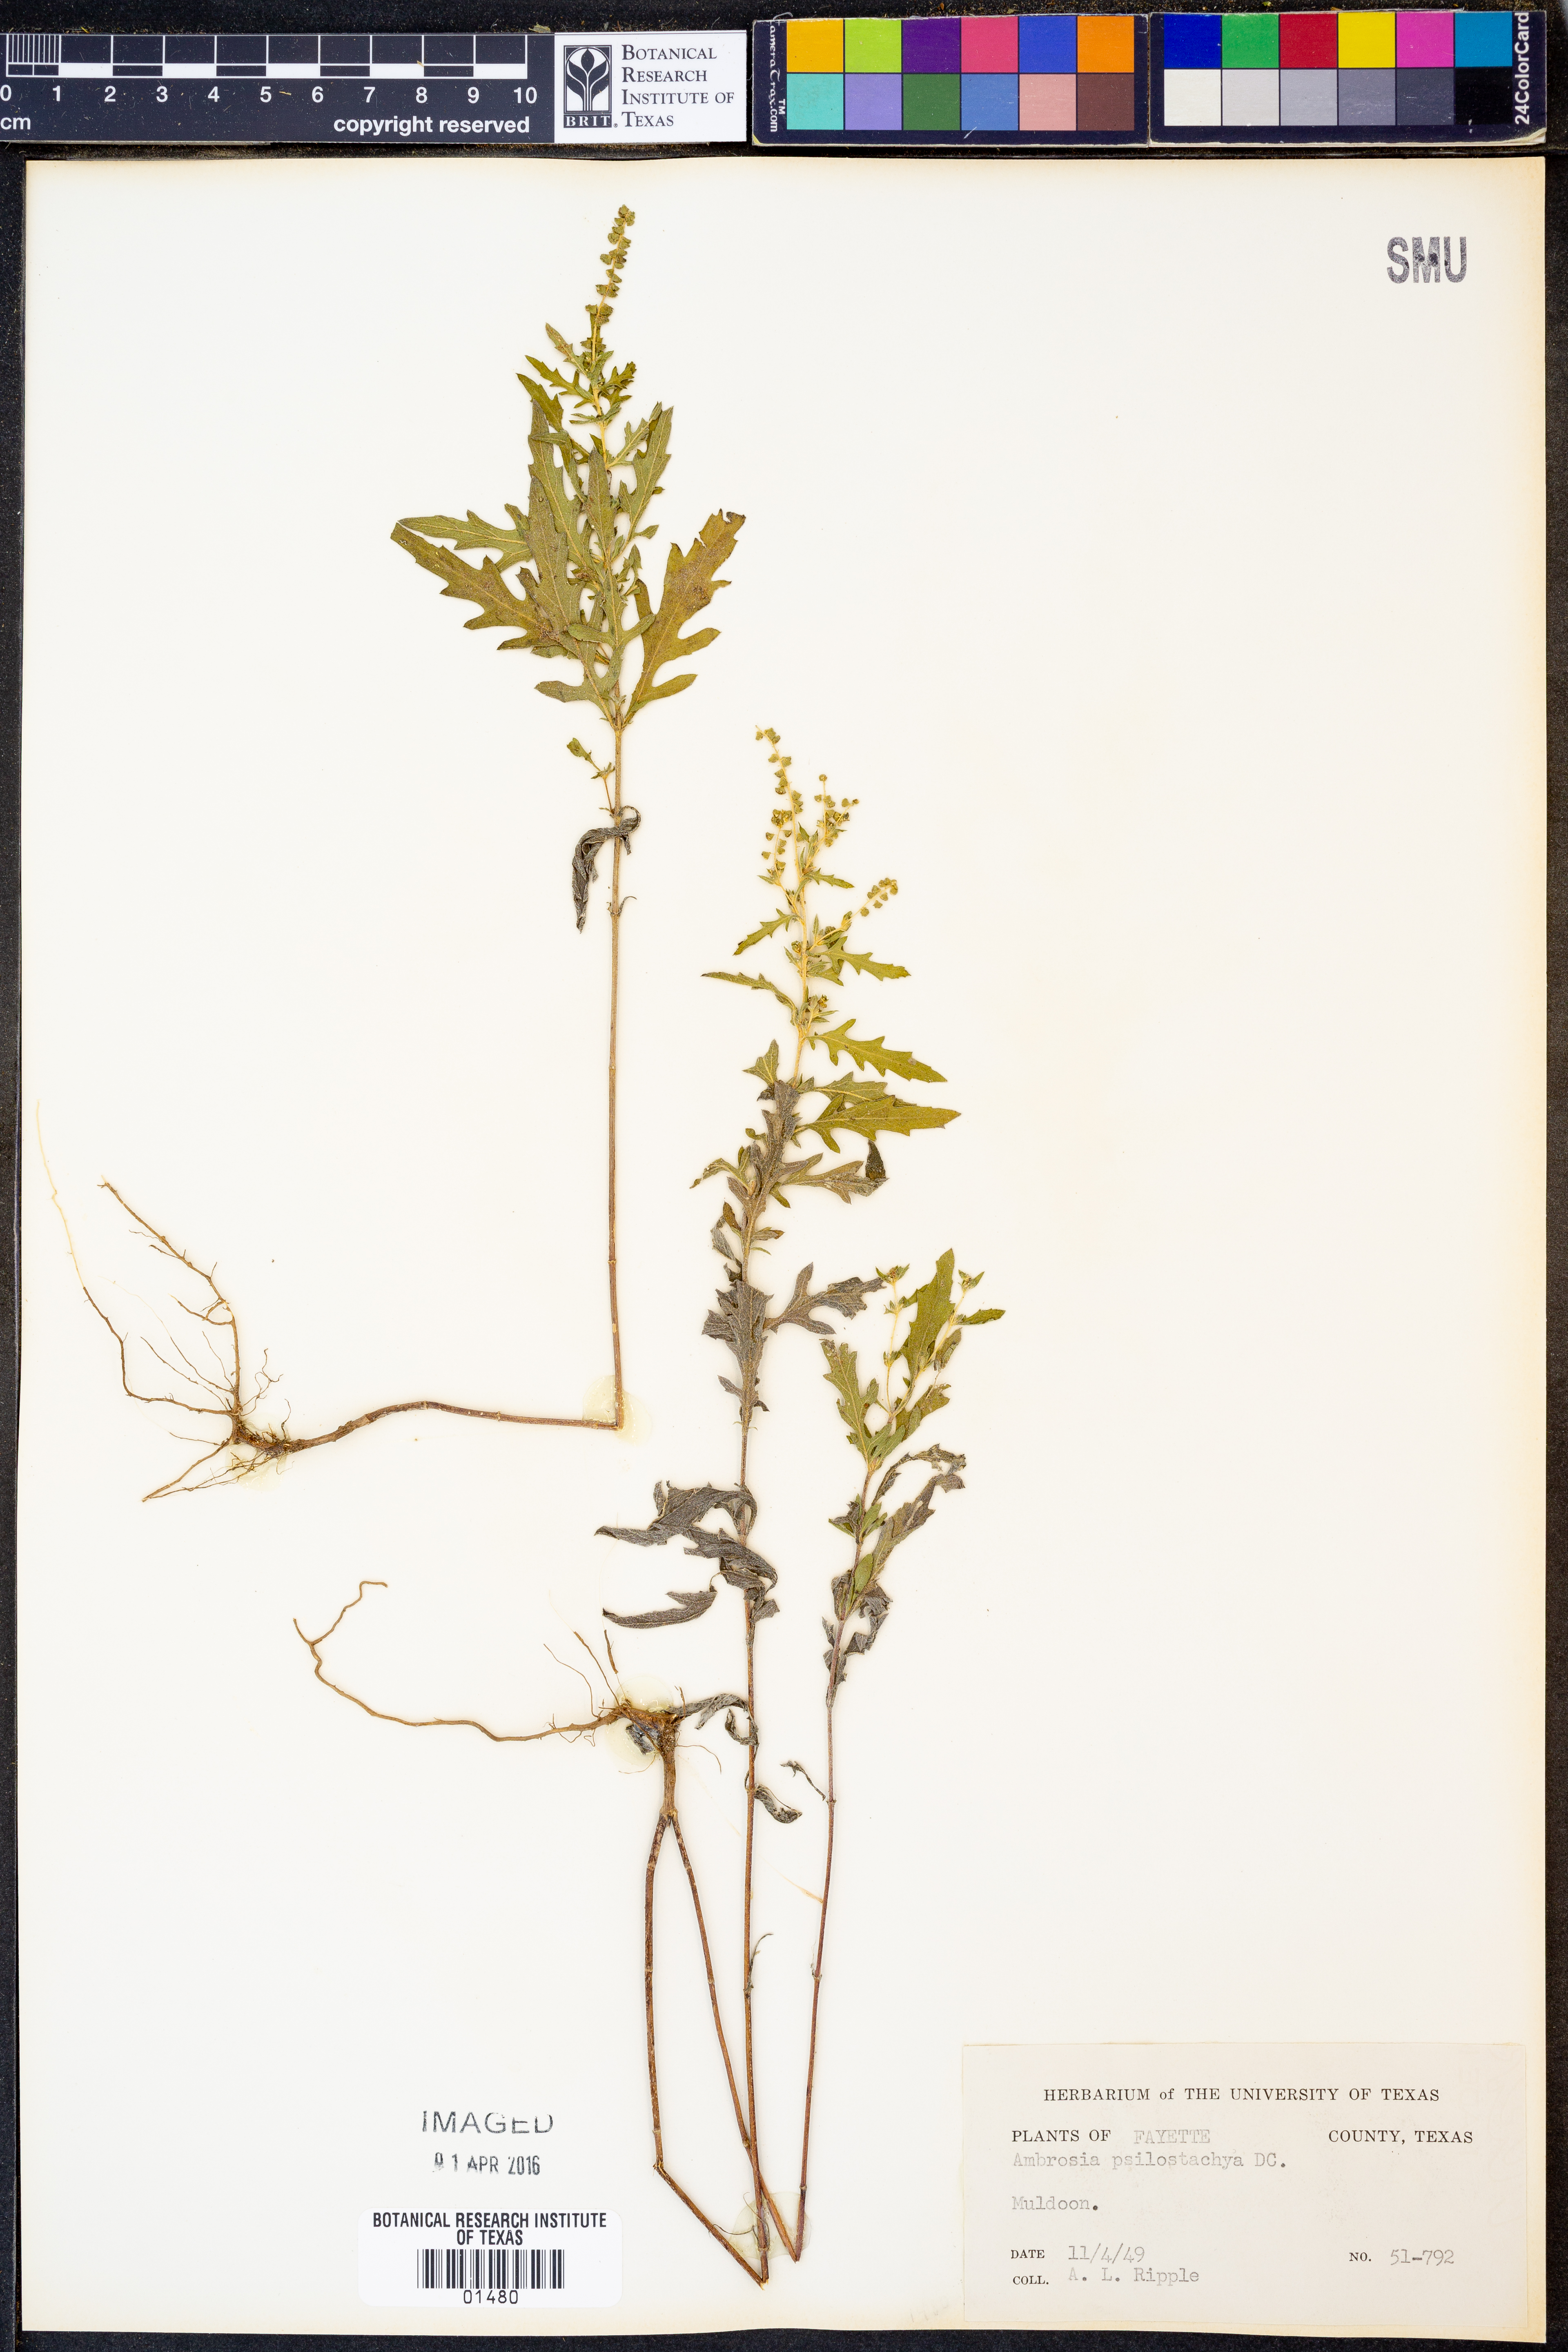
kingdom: Plantae
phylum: Tracheophyta
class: Magnoliopsida
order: Asterales
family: Asteraceae
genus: Ambrosia
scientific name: Ambrosia psilostachya
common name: Perennial ragweed
